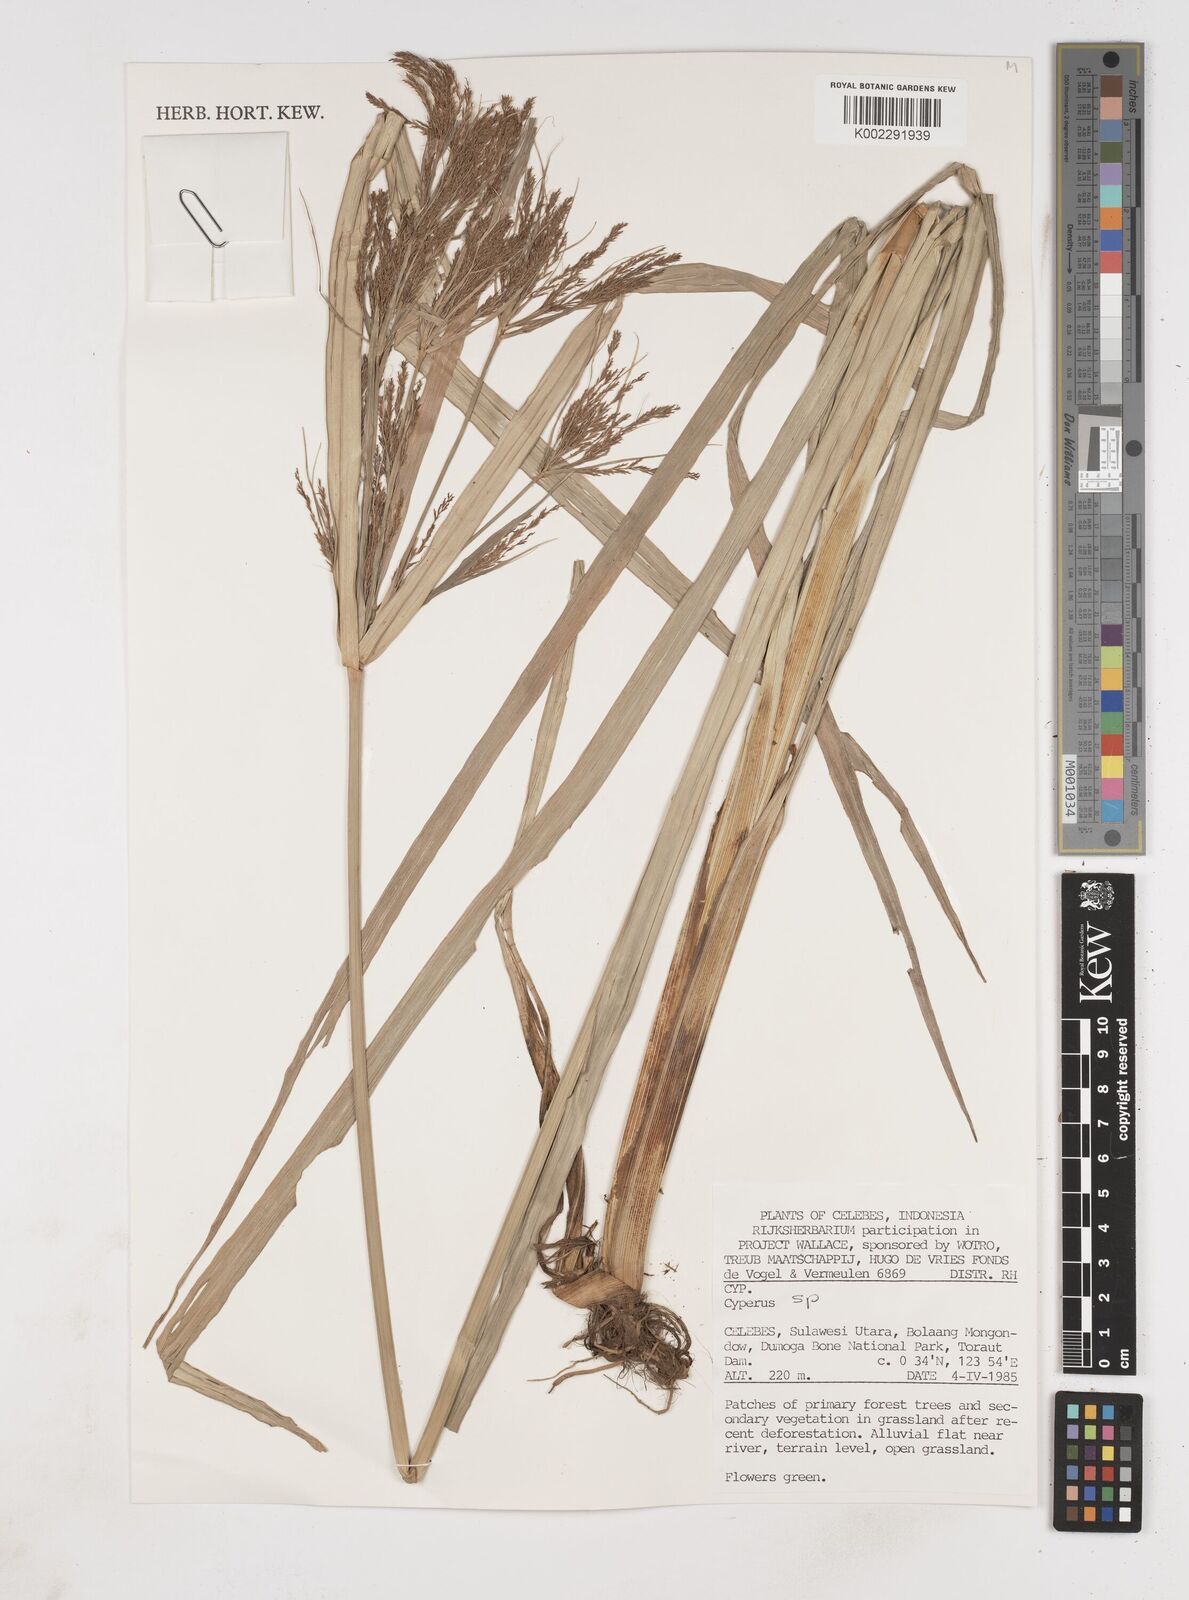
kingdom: Plantae
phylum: Tracheophyta
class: Liliopsida
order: Poales
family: Cyperaceae
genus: Cyperus
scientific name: Cyperus
